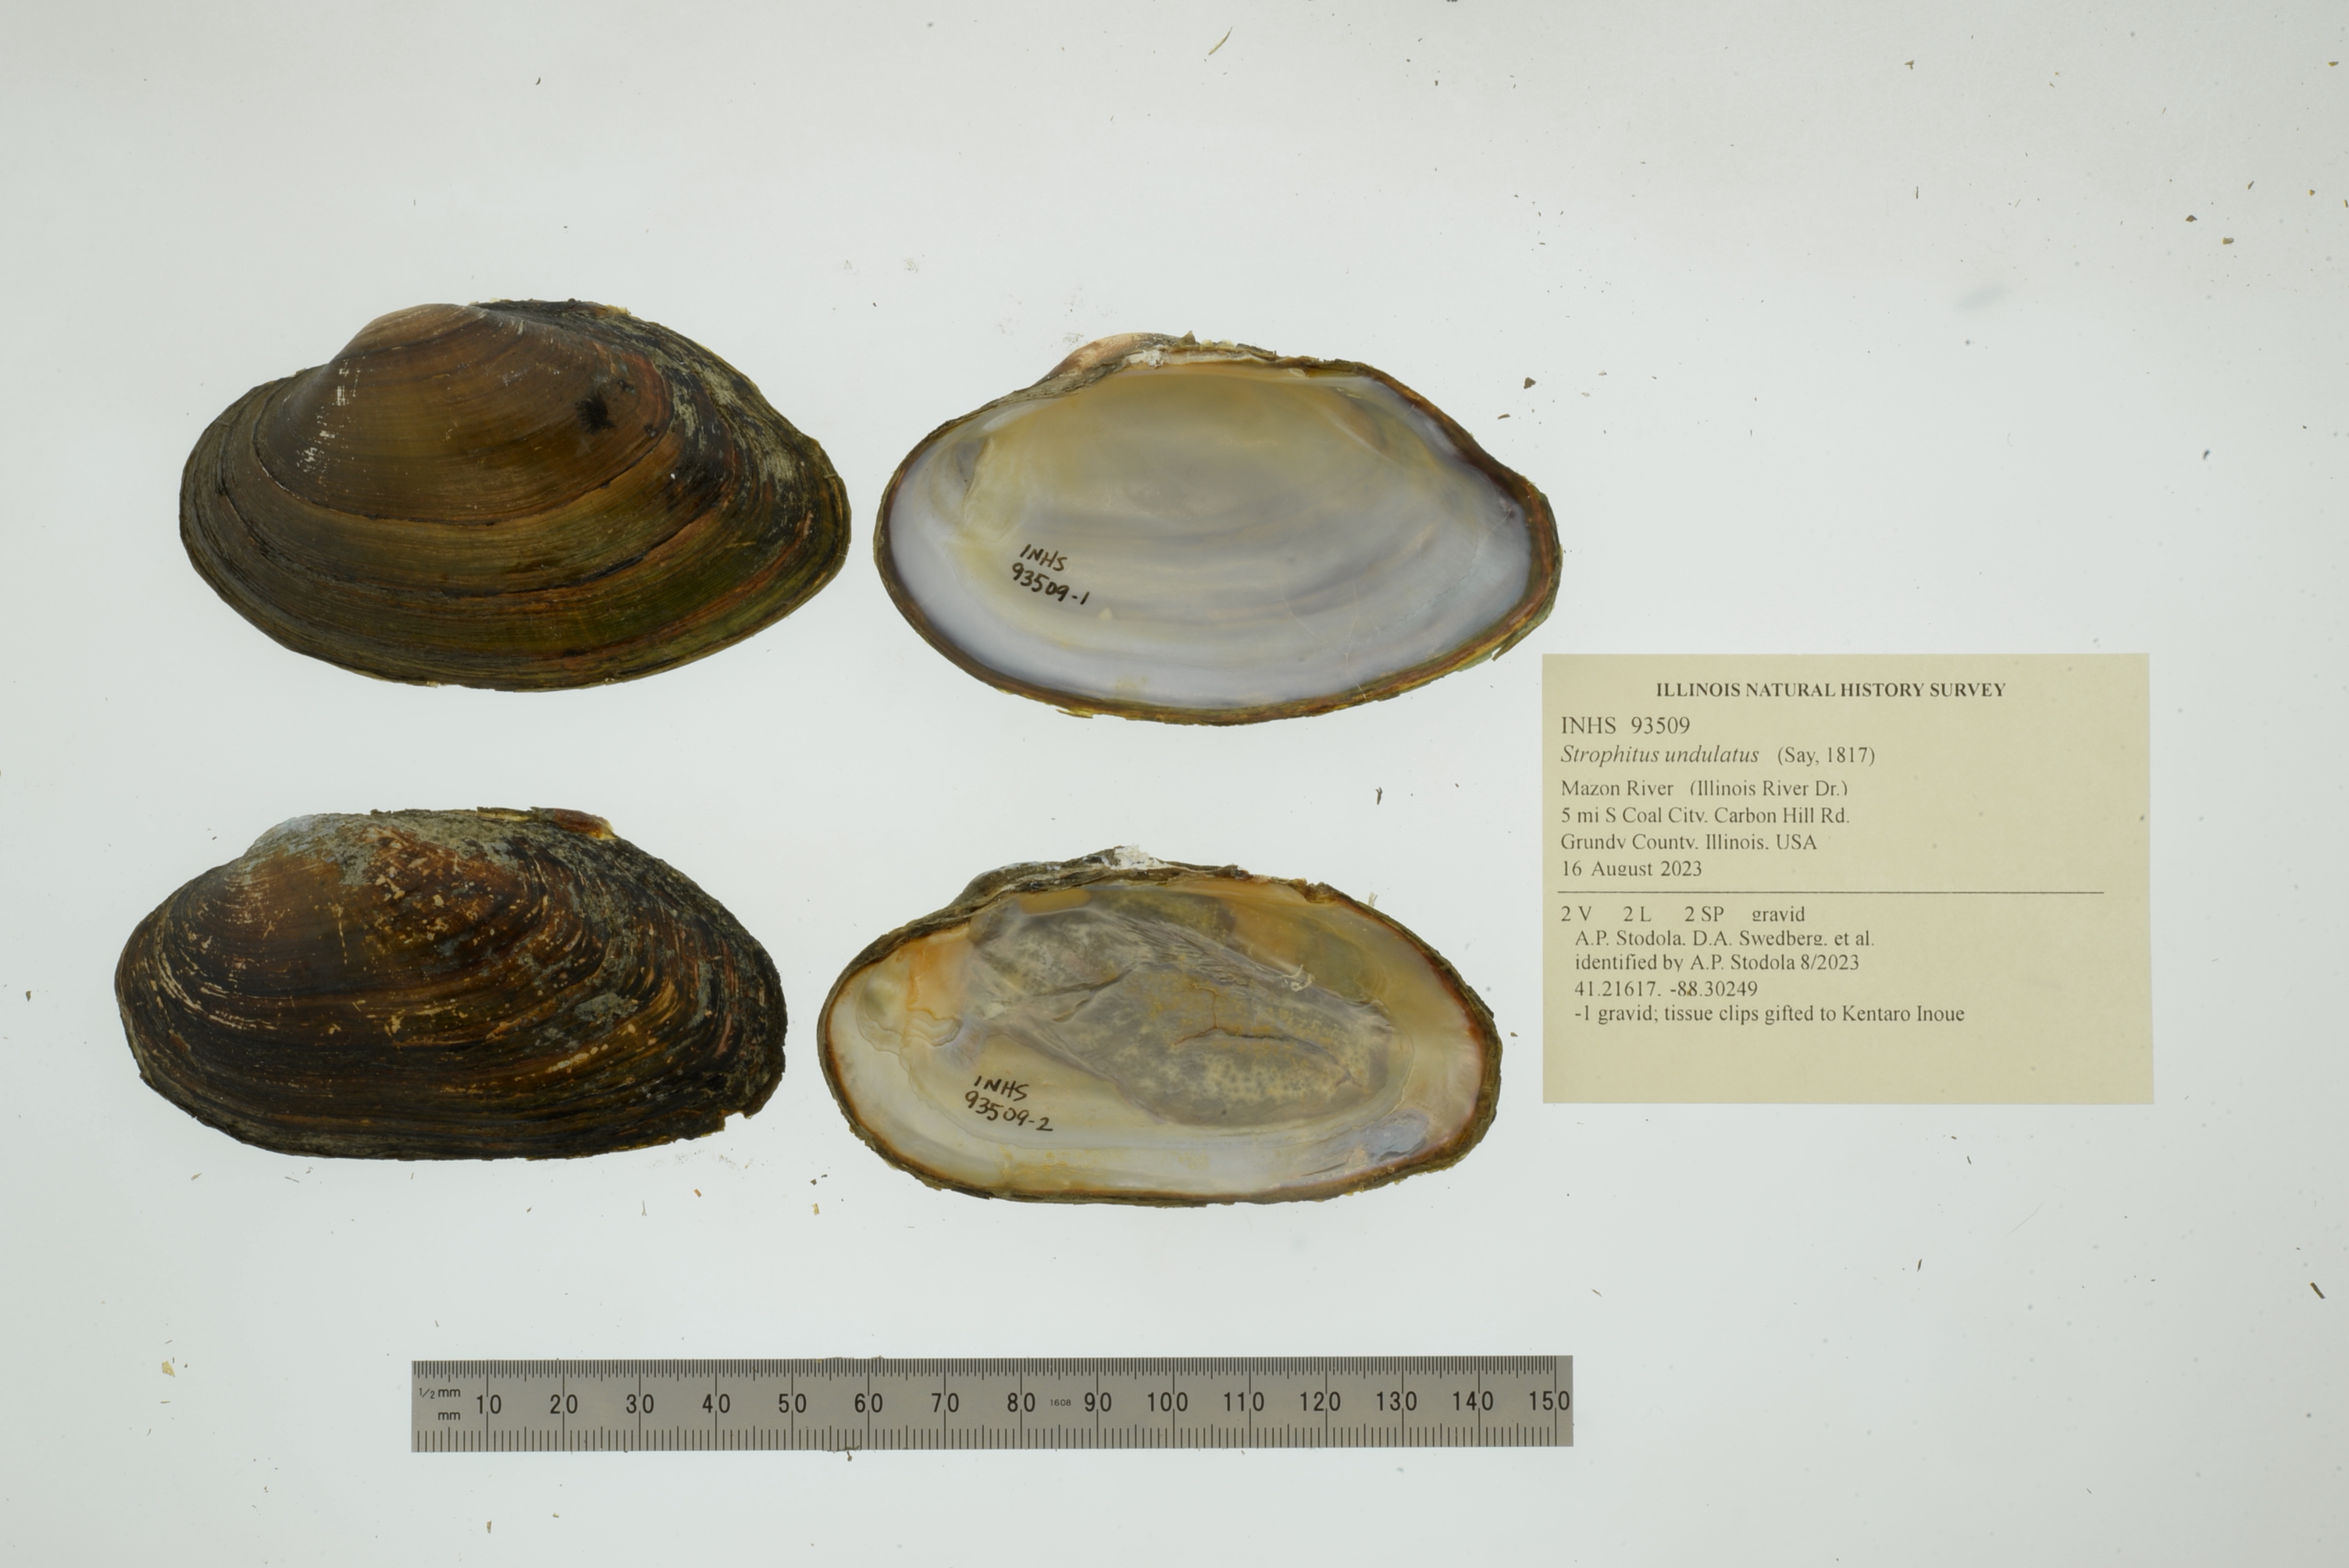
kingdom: Animalia
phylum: Mollusca
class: Bivalvia
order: Unionida
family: Unionidae
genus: Strophitus
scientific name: Strophitus undulatus
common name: Creeper
